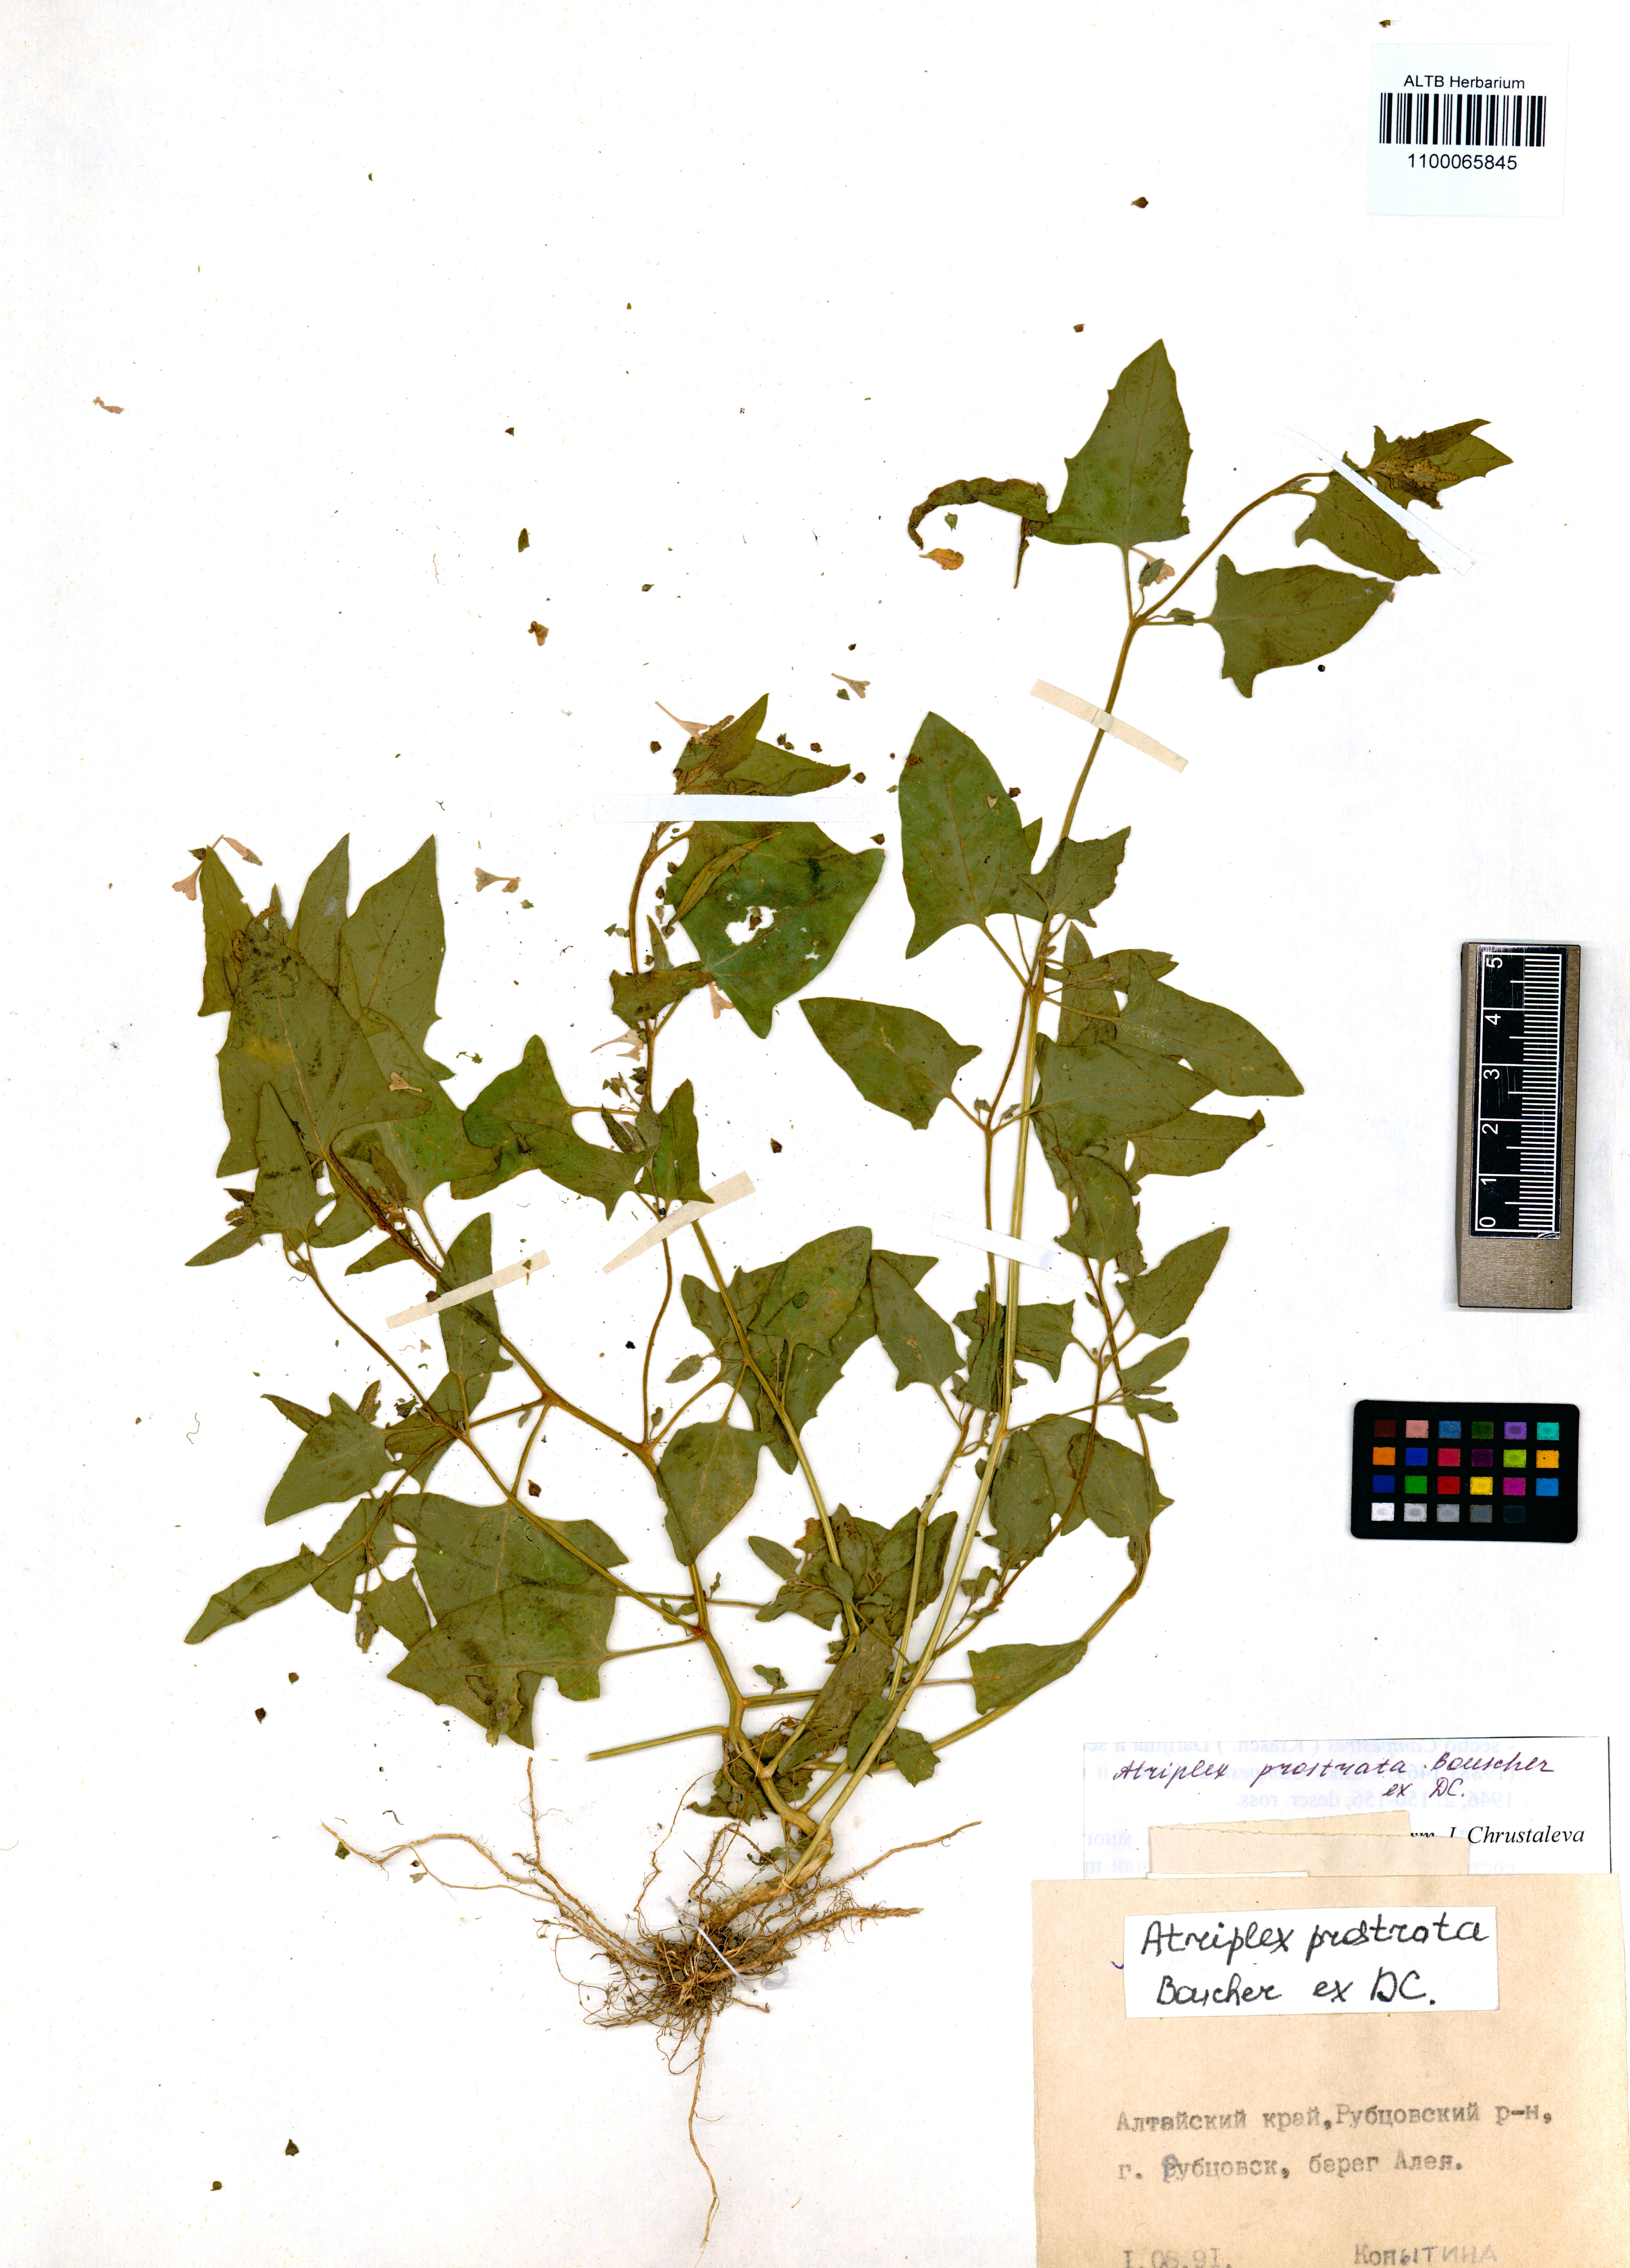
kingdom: Plantae
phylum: Tracheophyta
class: Magnoliopsida
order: Caryophyllales
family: Amaranthaceae
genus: Atriplex
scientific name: Atriplex prostrata
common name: Spear-leaved orache
